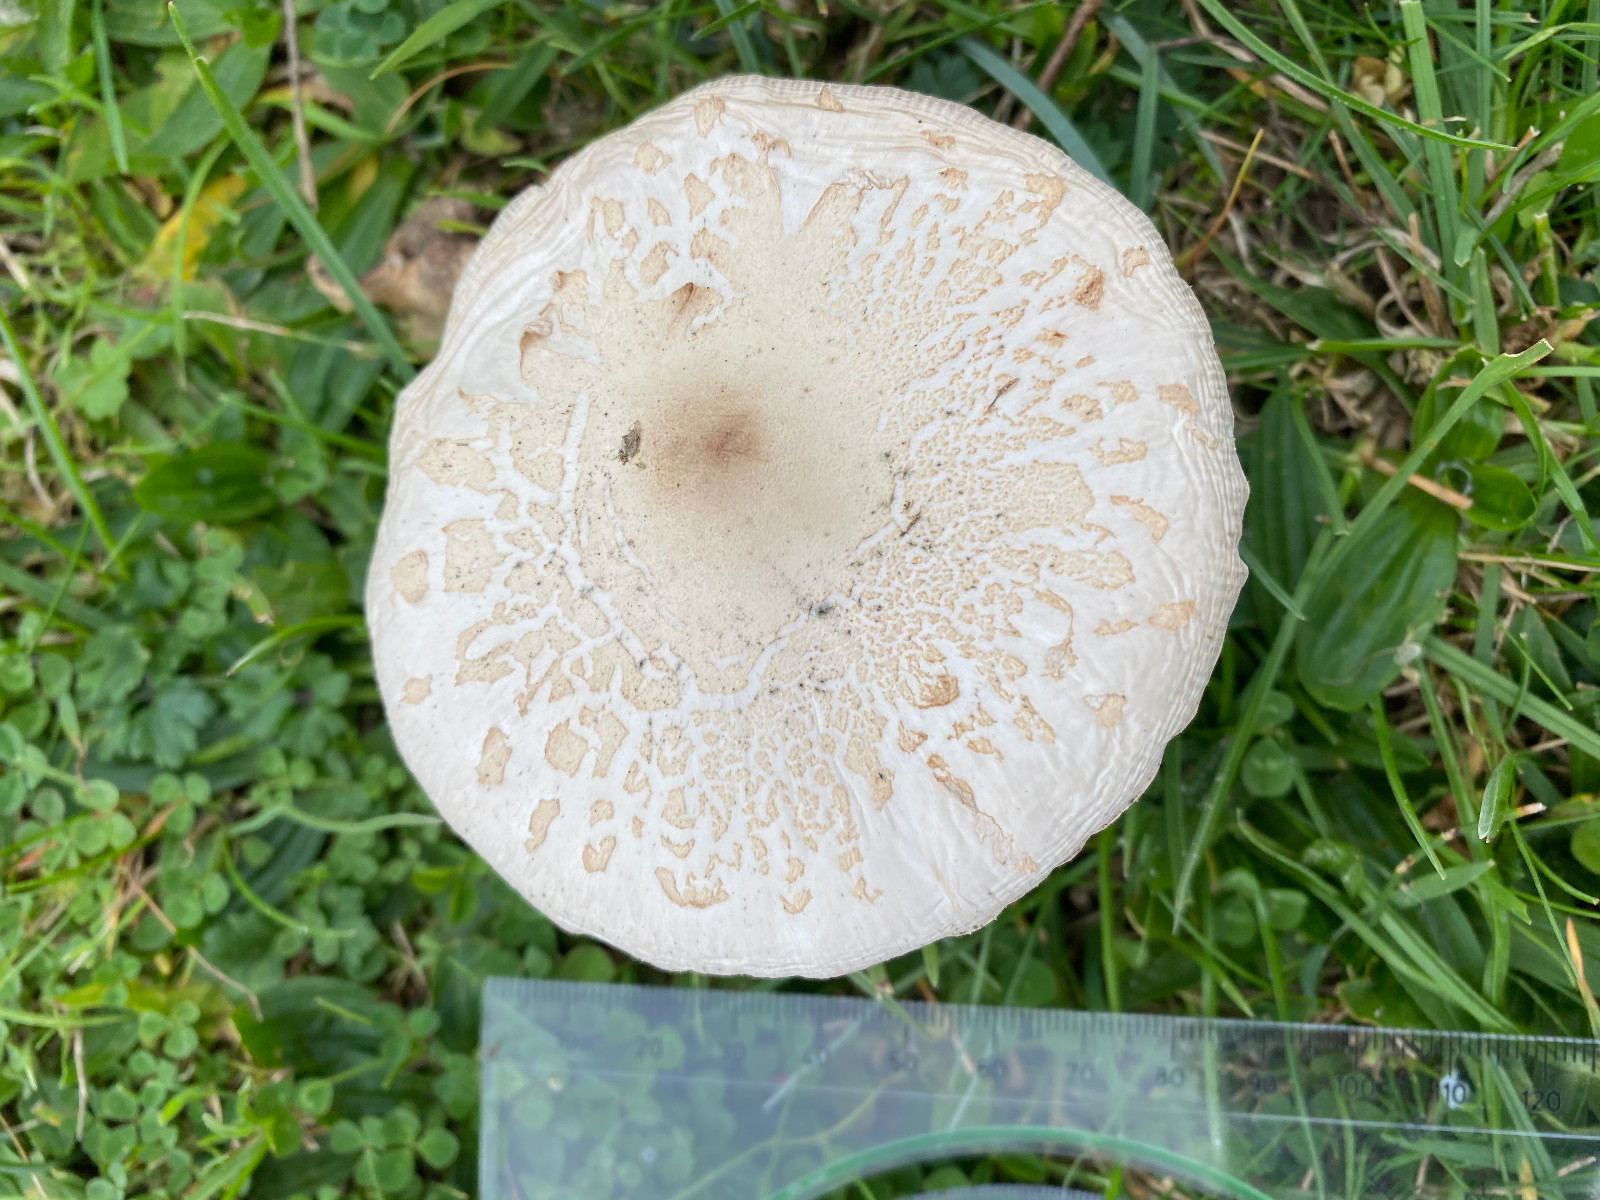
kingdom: Fungi
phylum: Basidiomycota
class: Agaricomycetes
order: Agaricales
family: Agaricaceae
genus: Macrolepiota
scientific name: Macrolepiota excoriata
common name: mark-kæmpeparasolhat
